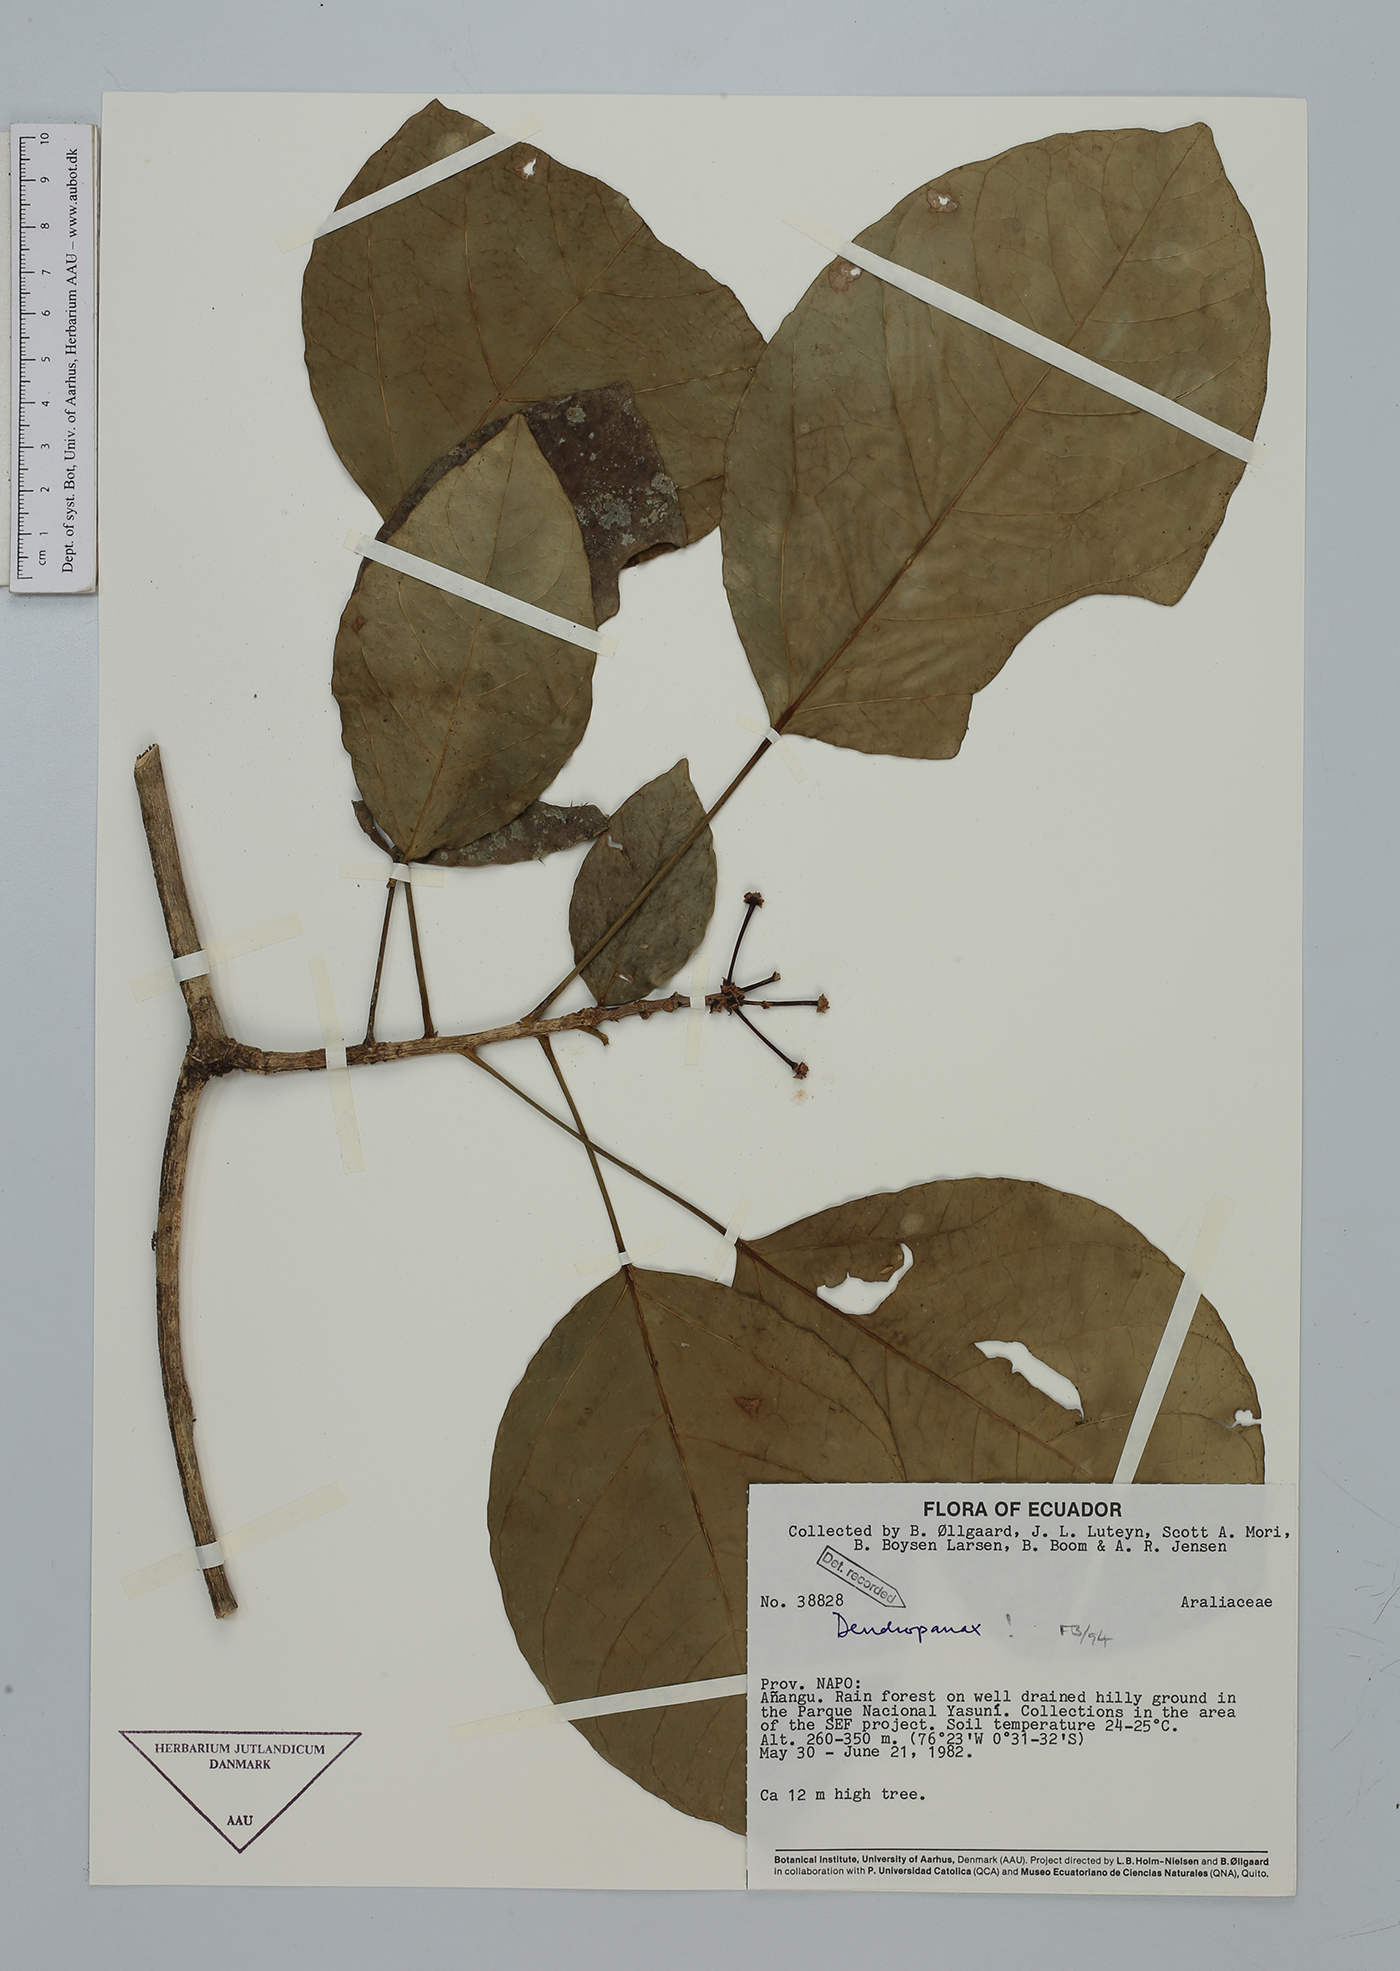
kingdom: Plantae
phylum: Tracheophyta
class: Magnoliopsida
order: Apiales
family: Araliaceae
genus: Dendropanax
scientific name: Dendropanax
